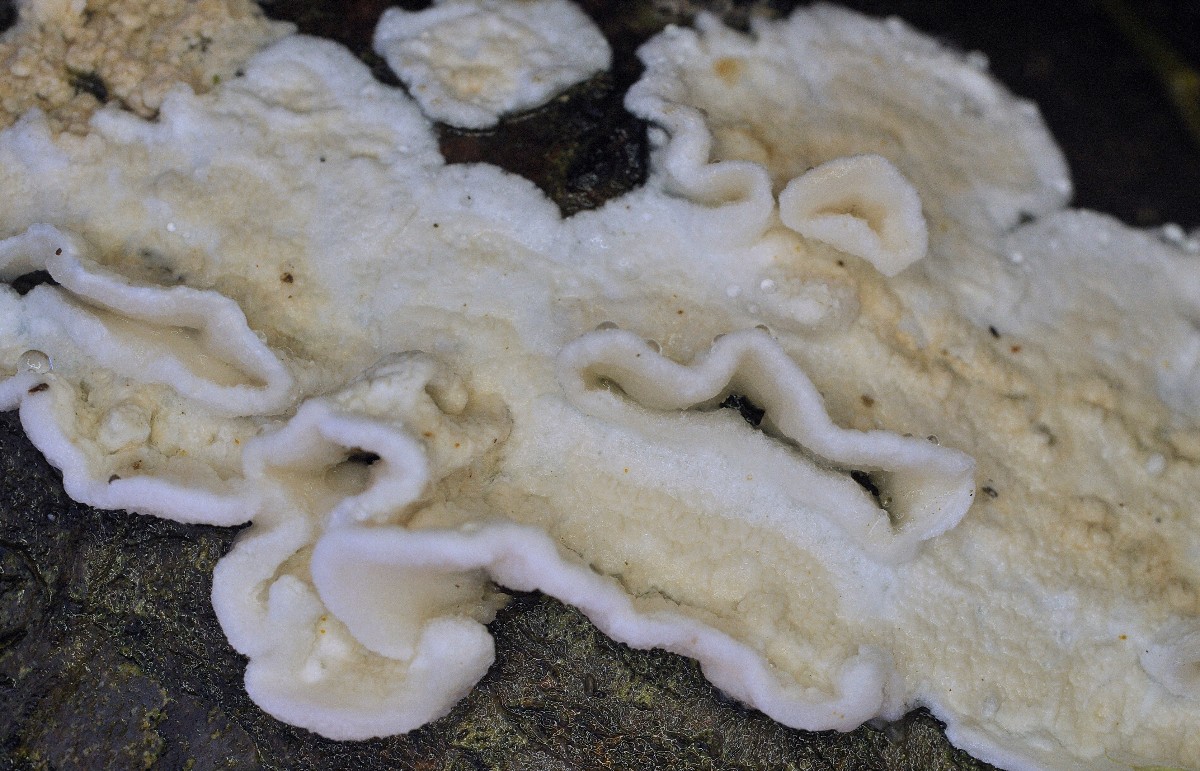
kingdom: Fungi
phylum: Basidiomycota
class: Agaricomycetes
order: Polyporales
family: Irpicaceae
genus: Byssomerulius
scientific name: Byssomerulius corium
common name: læder-åresvamp
